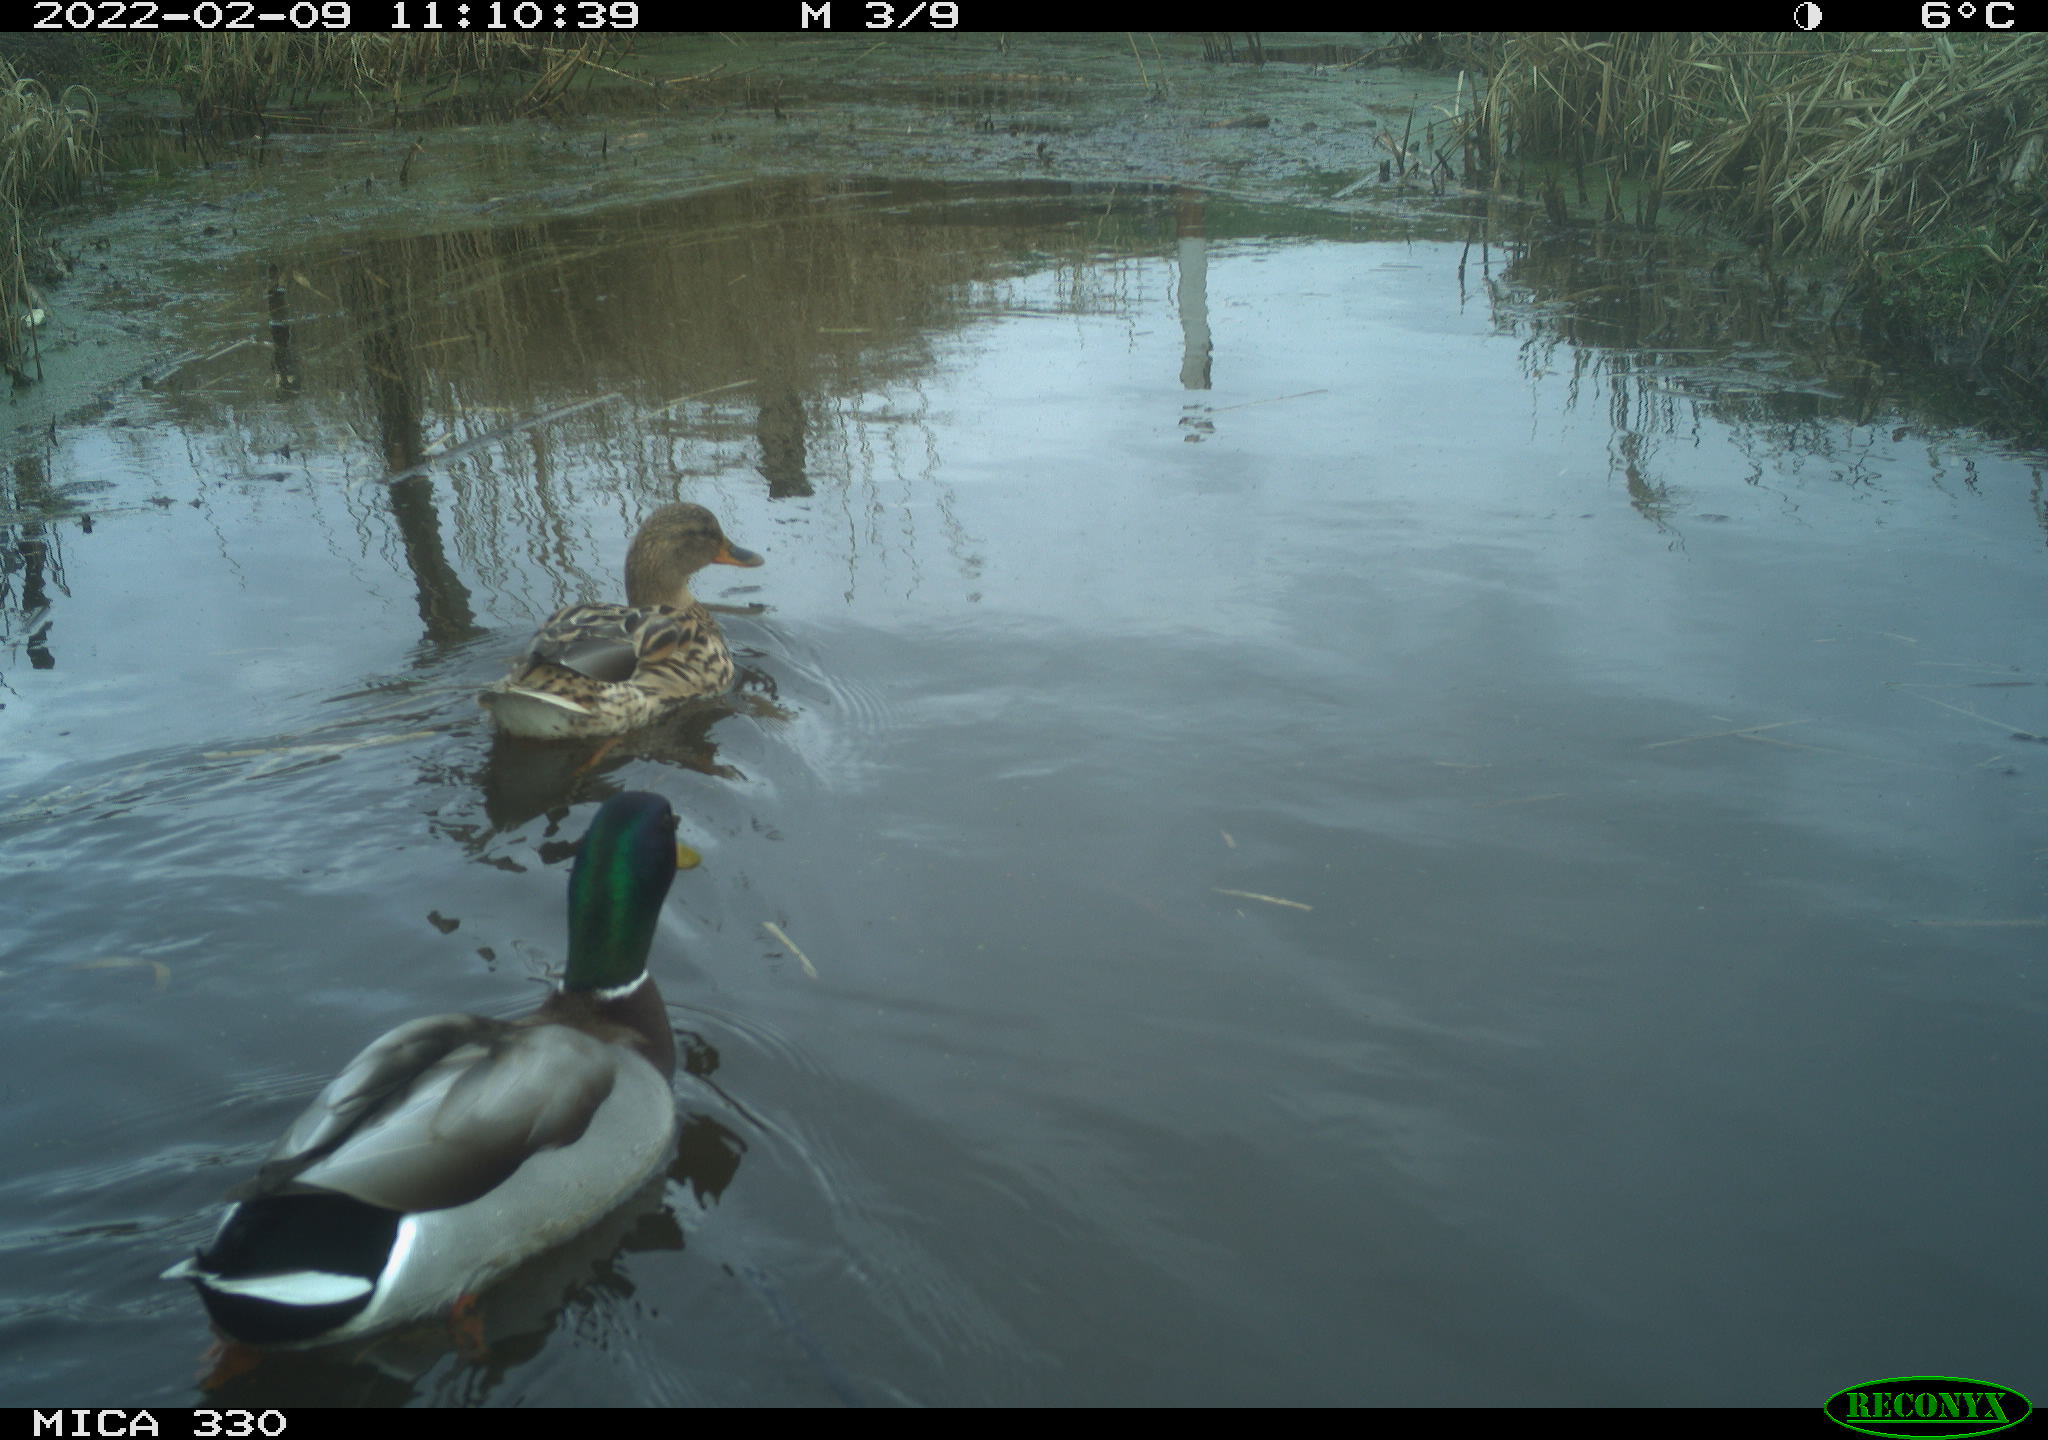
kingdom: Animalia
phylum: Chordata
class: Aves
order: Anseriformes
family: Anatidae
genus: Anas
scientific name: Anas platyrhynchos
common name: Mallard
